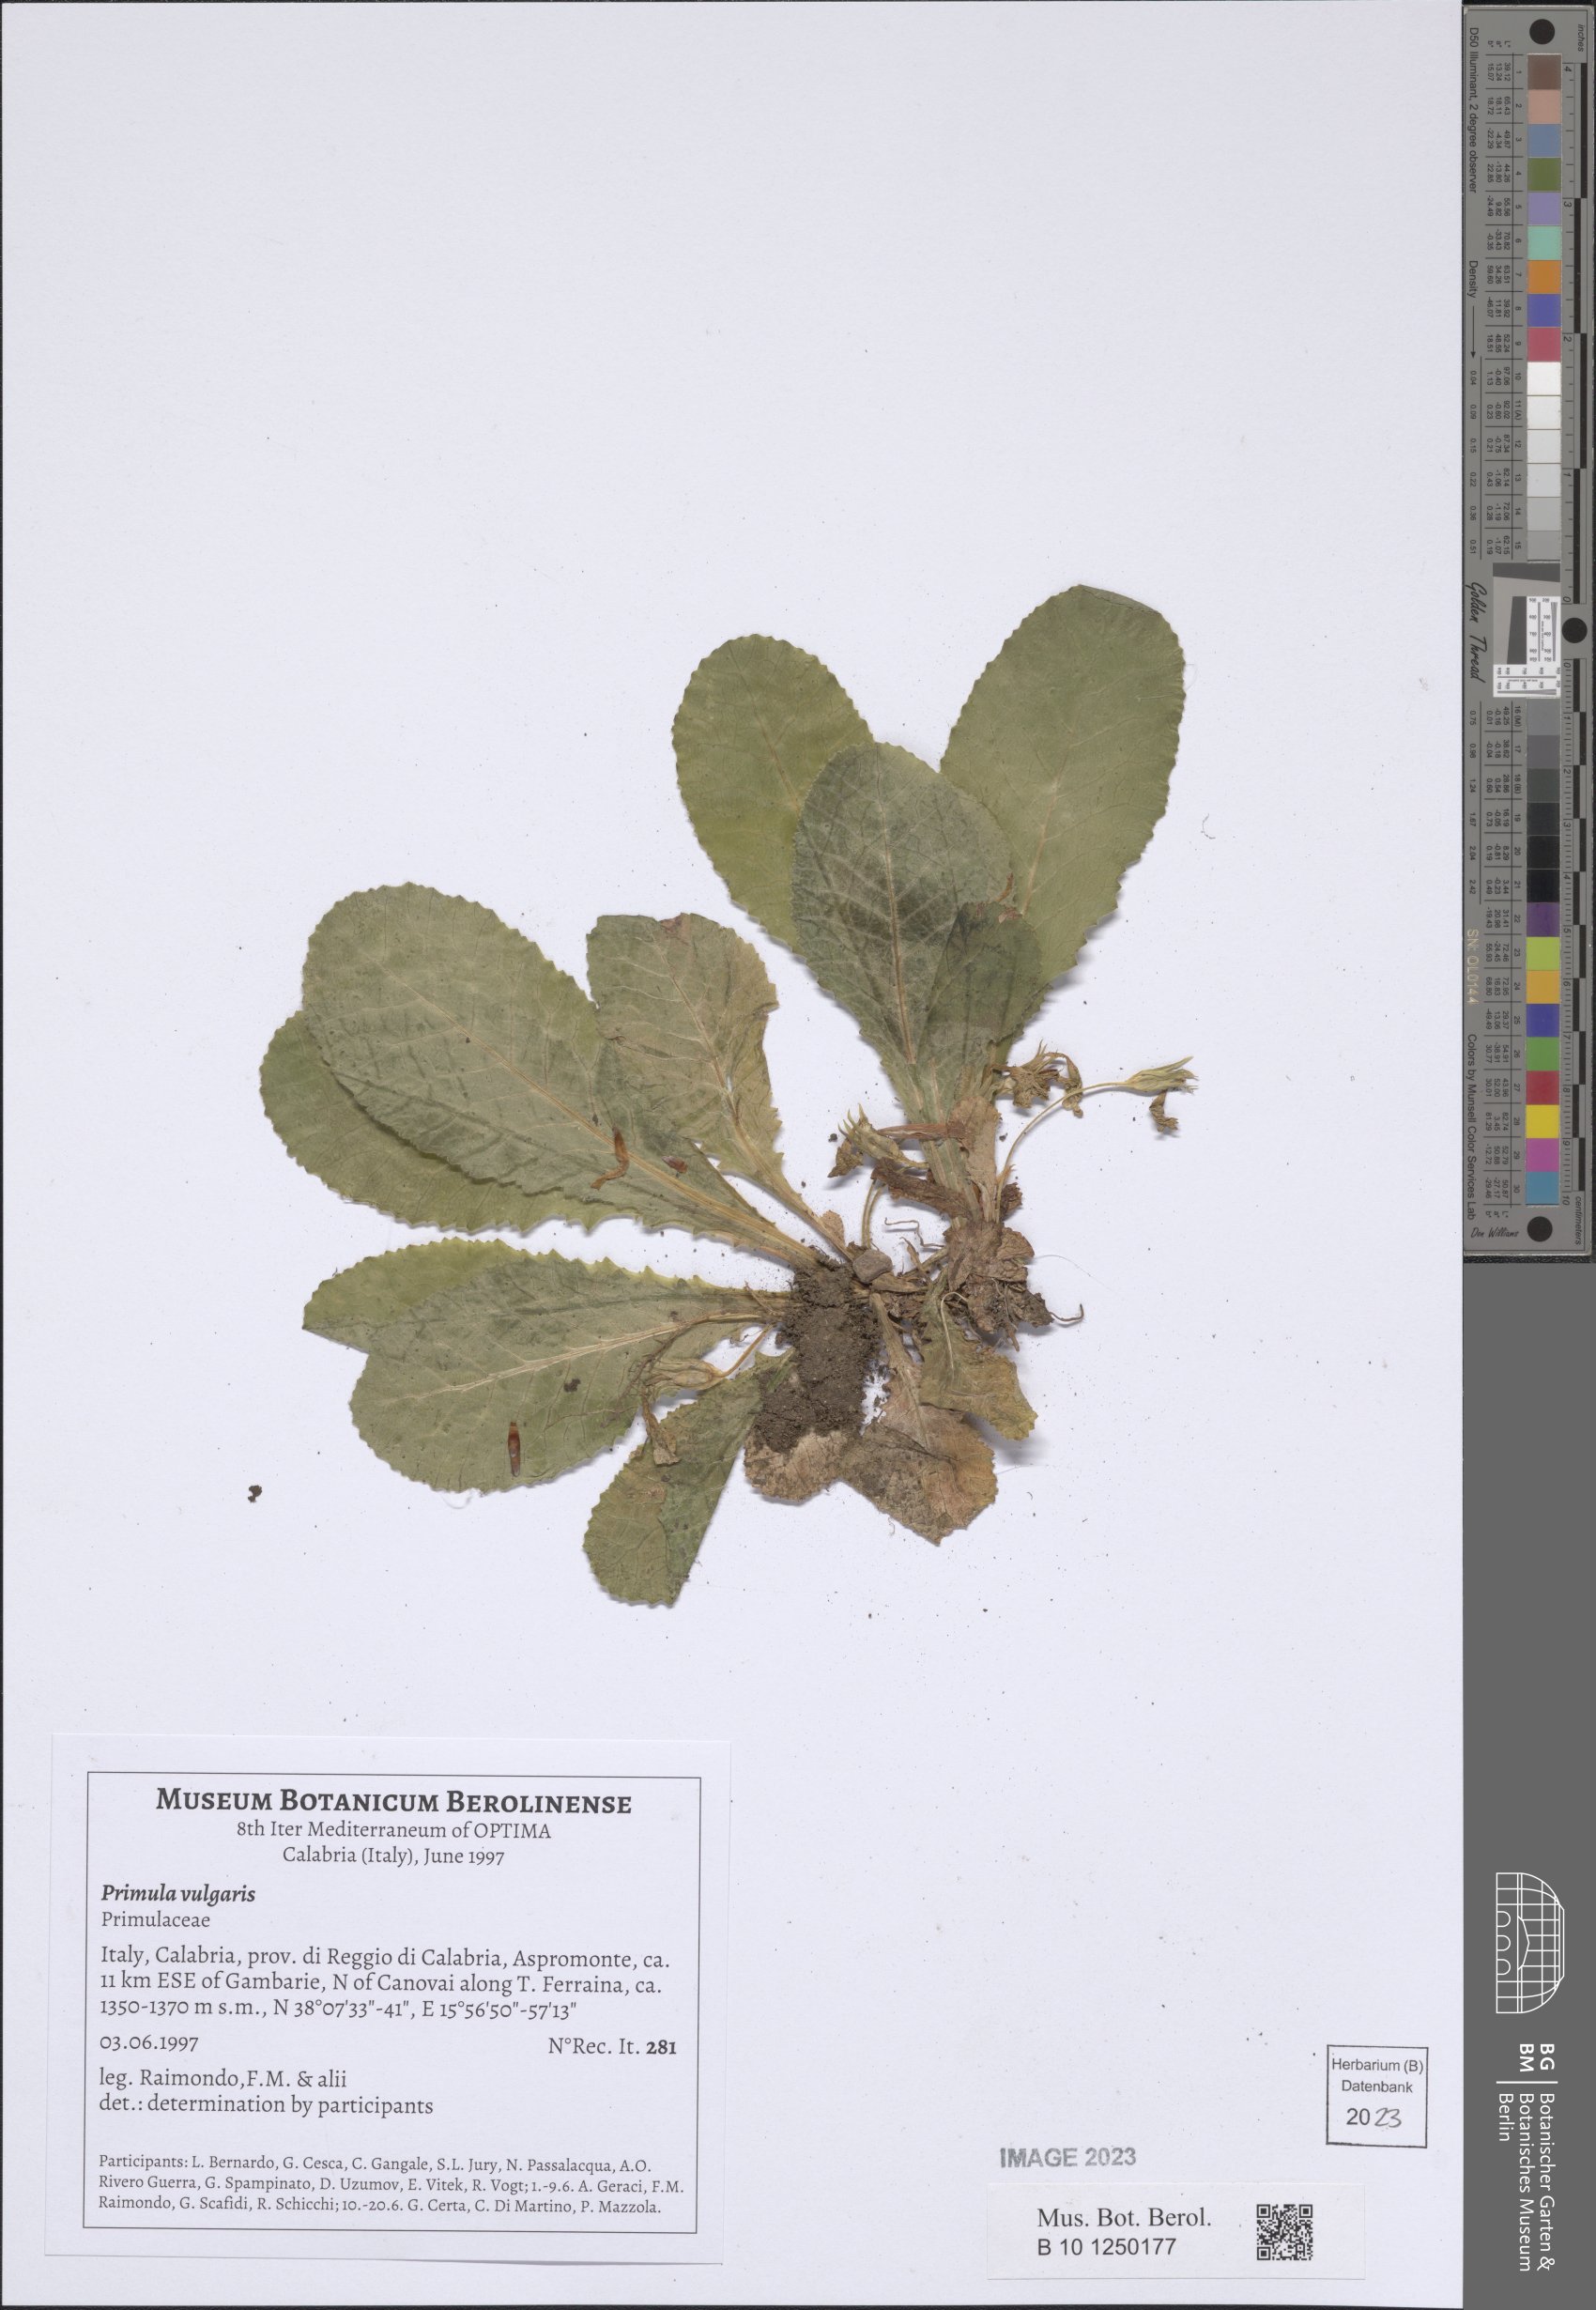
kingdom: Plantae
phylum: Tracheophyta
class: Magnoliopsida
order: Ericales
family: Primulaceae
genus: Primula
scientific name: Primula vulgaris
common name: Primrose
